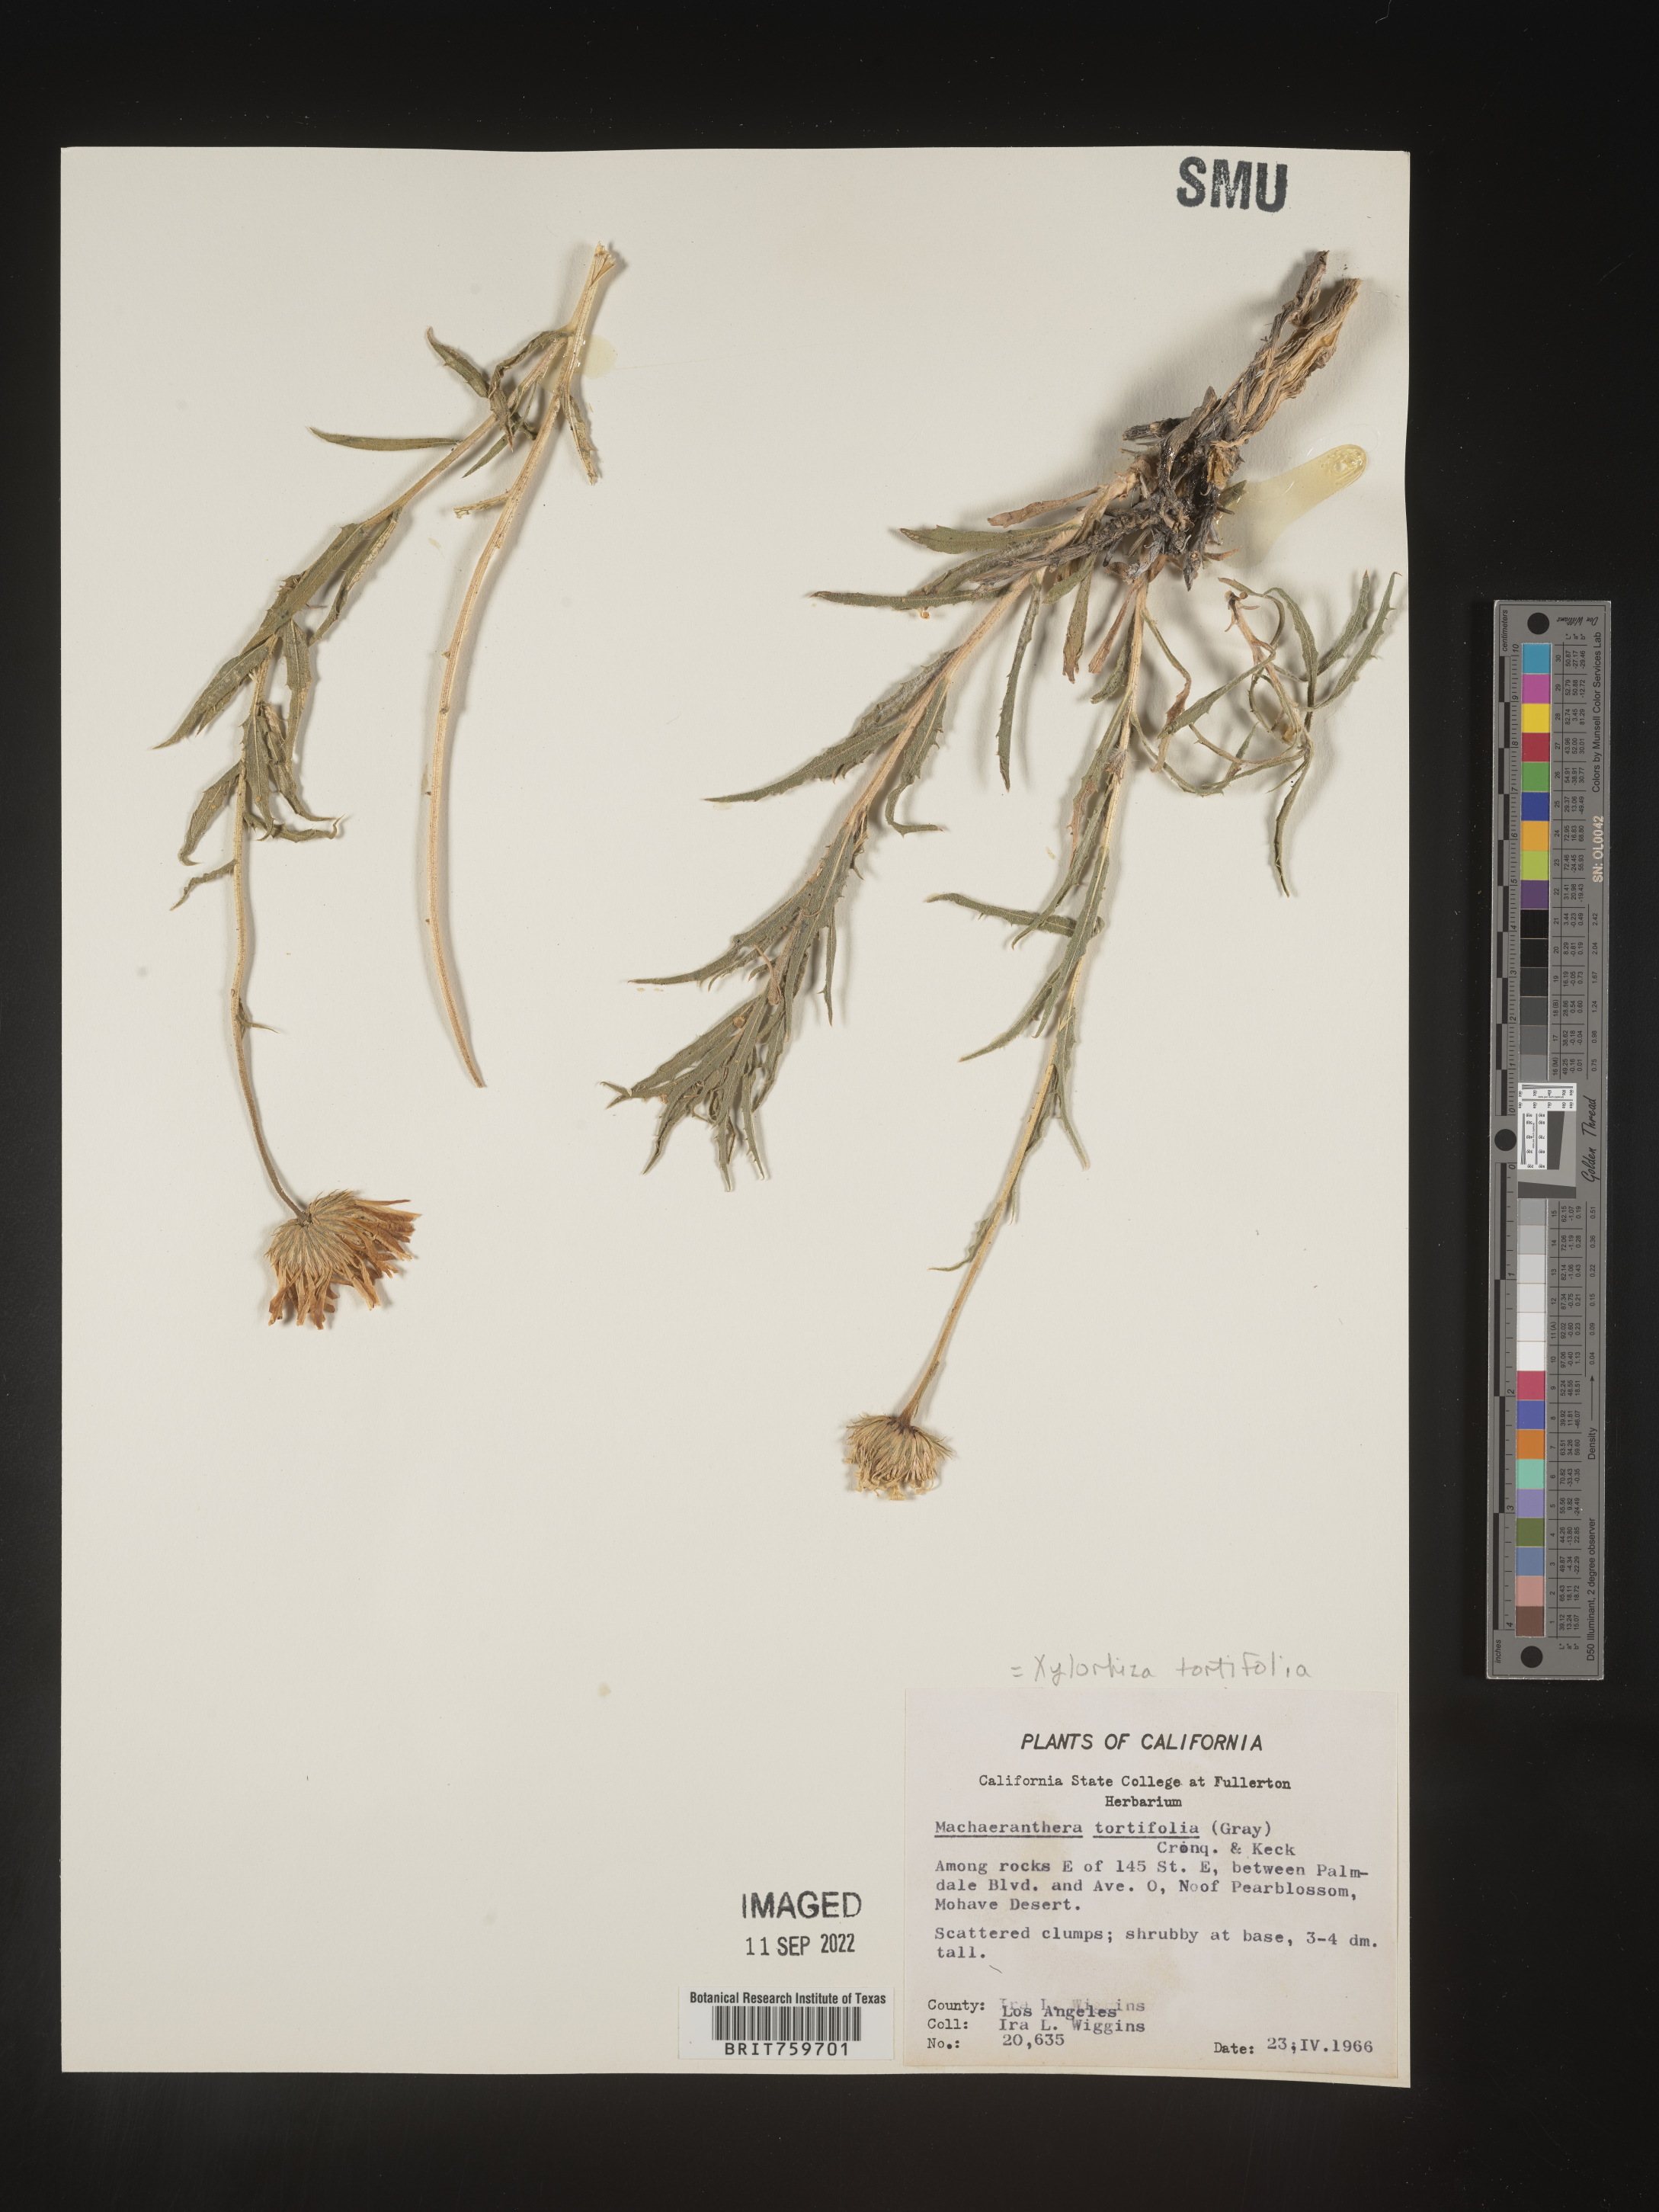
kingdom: Plantae
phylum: Tracheophyta
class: Magnoliopsida
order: Asterales
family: Asteraceae
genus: Xylorhiza
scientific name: Xylorhiza tortifolia
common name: Hurt-leaf woody-aster
